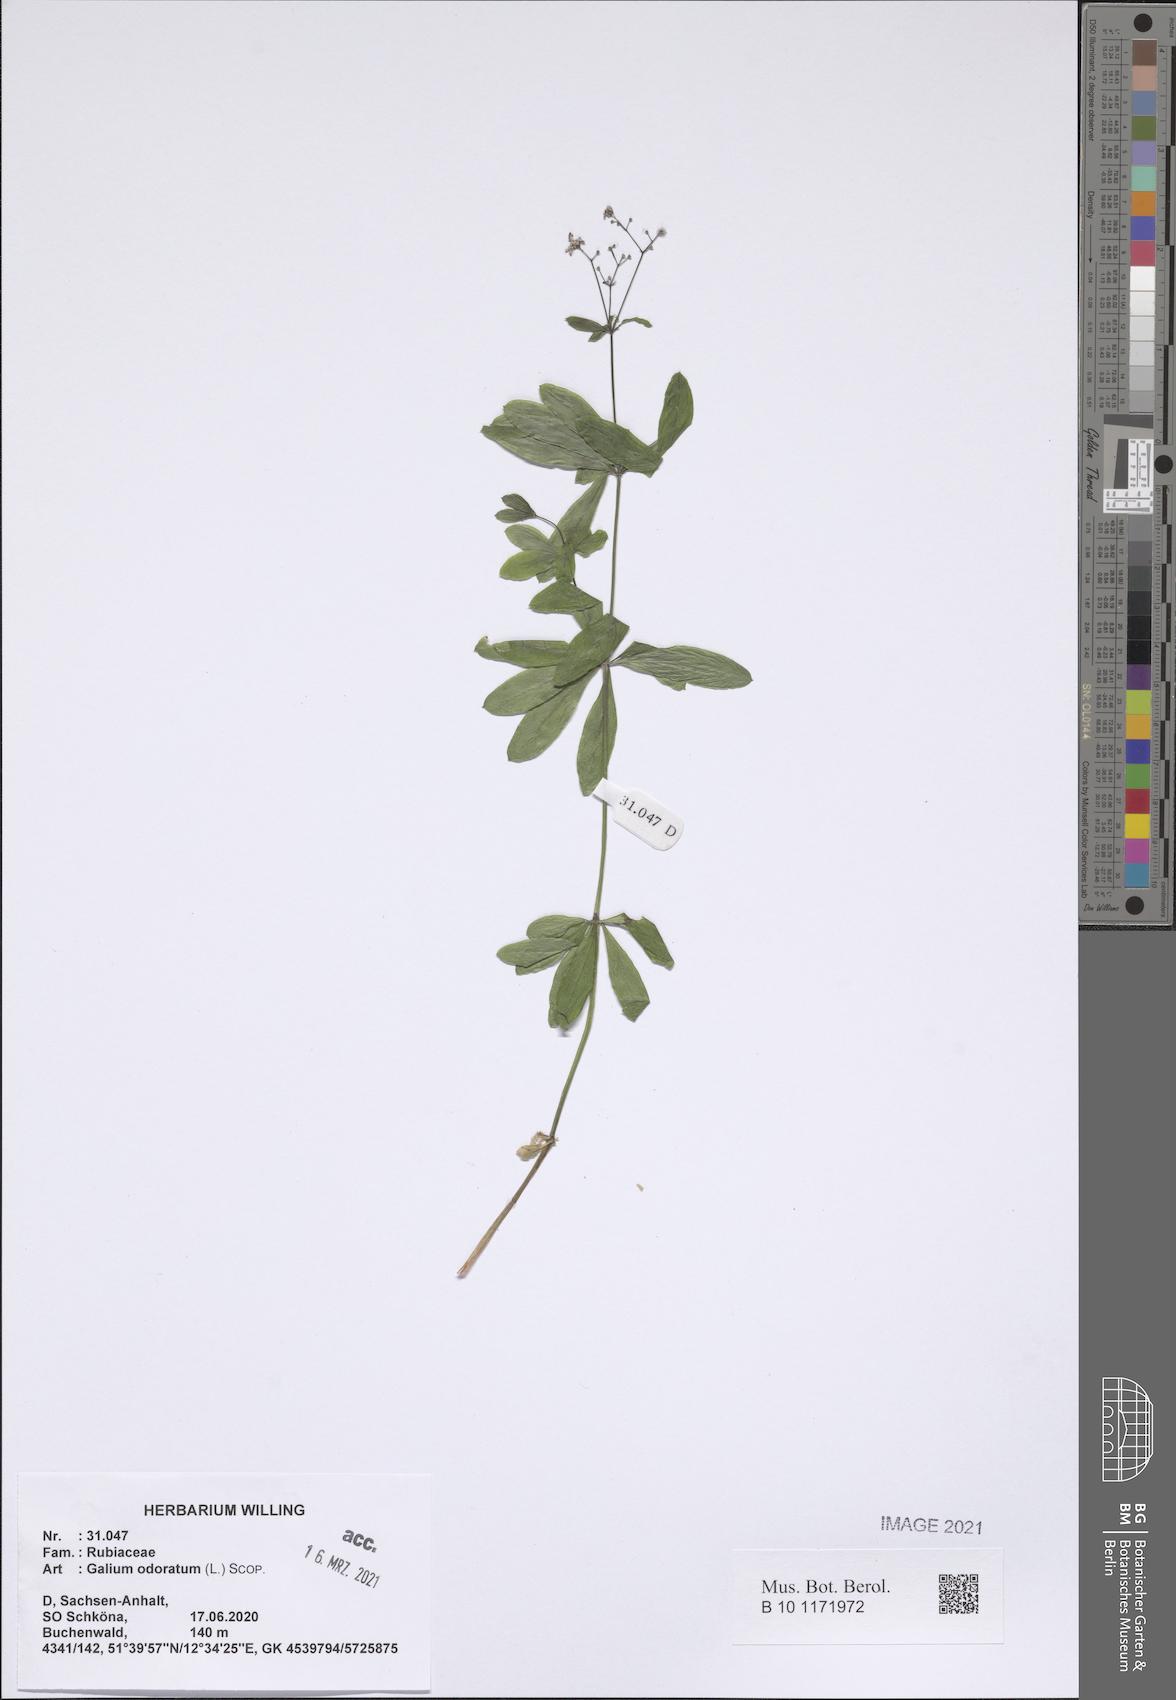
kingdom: Plantae
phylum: Tracheophyta
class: Magnoliopsida
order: Gentianales
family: Rubiaceae
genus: Galium
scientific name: Galium odoratum
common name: Sweet woodruff
